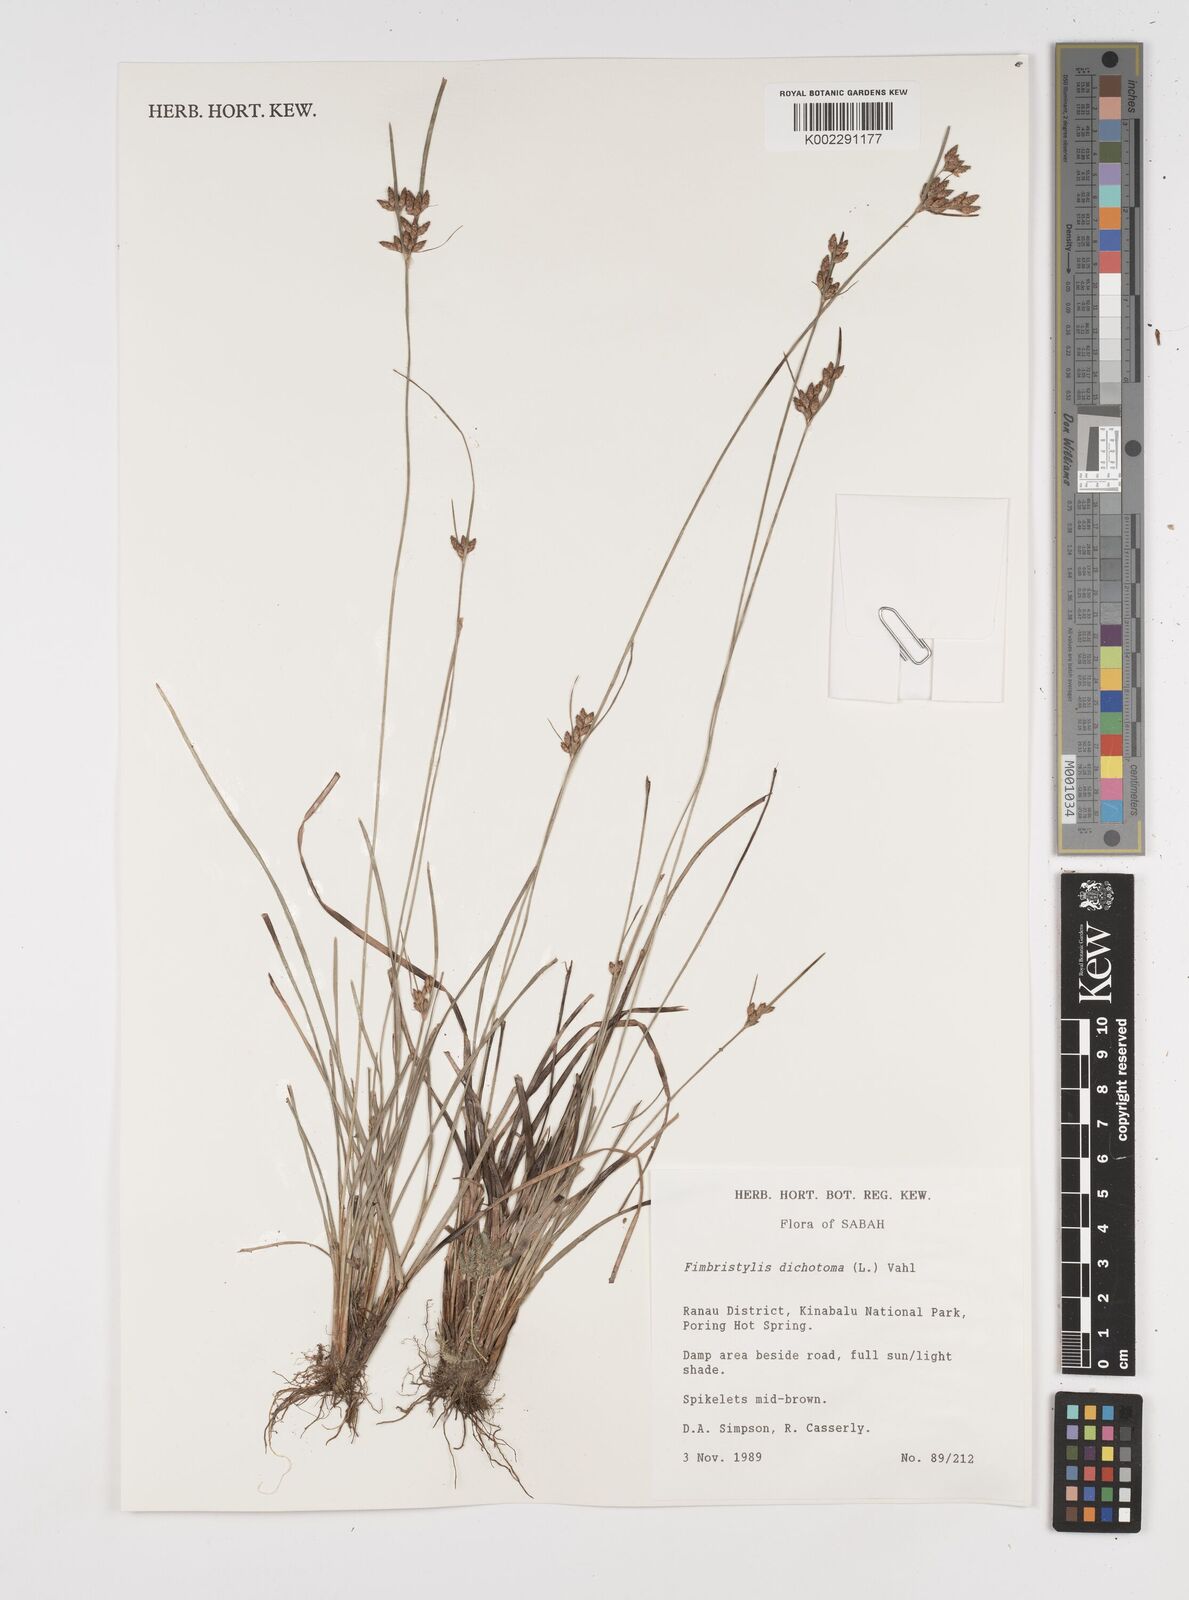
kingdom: Plantae
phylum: Tracheophyta
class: Liliopsida
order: Poales
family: Cyperaceae
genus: Fimbristylis
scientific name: Fimbristylis dichotoma
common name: Forked fimbry
